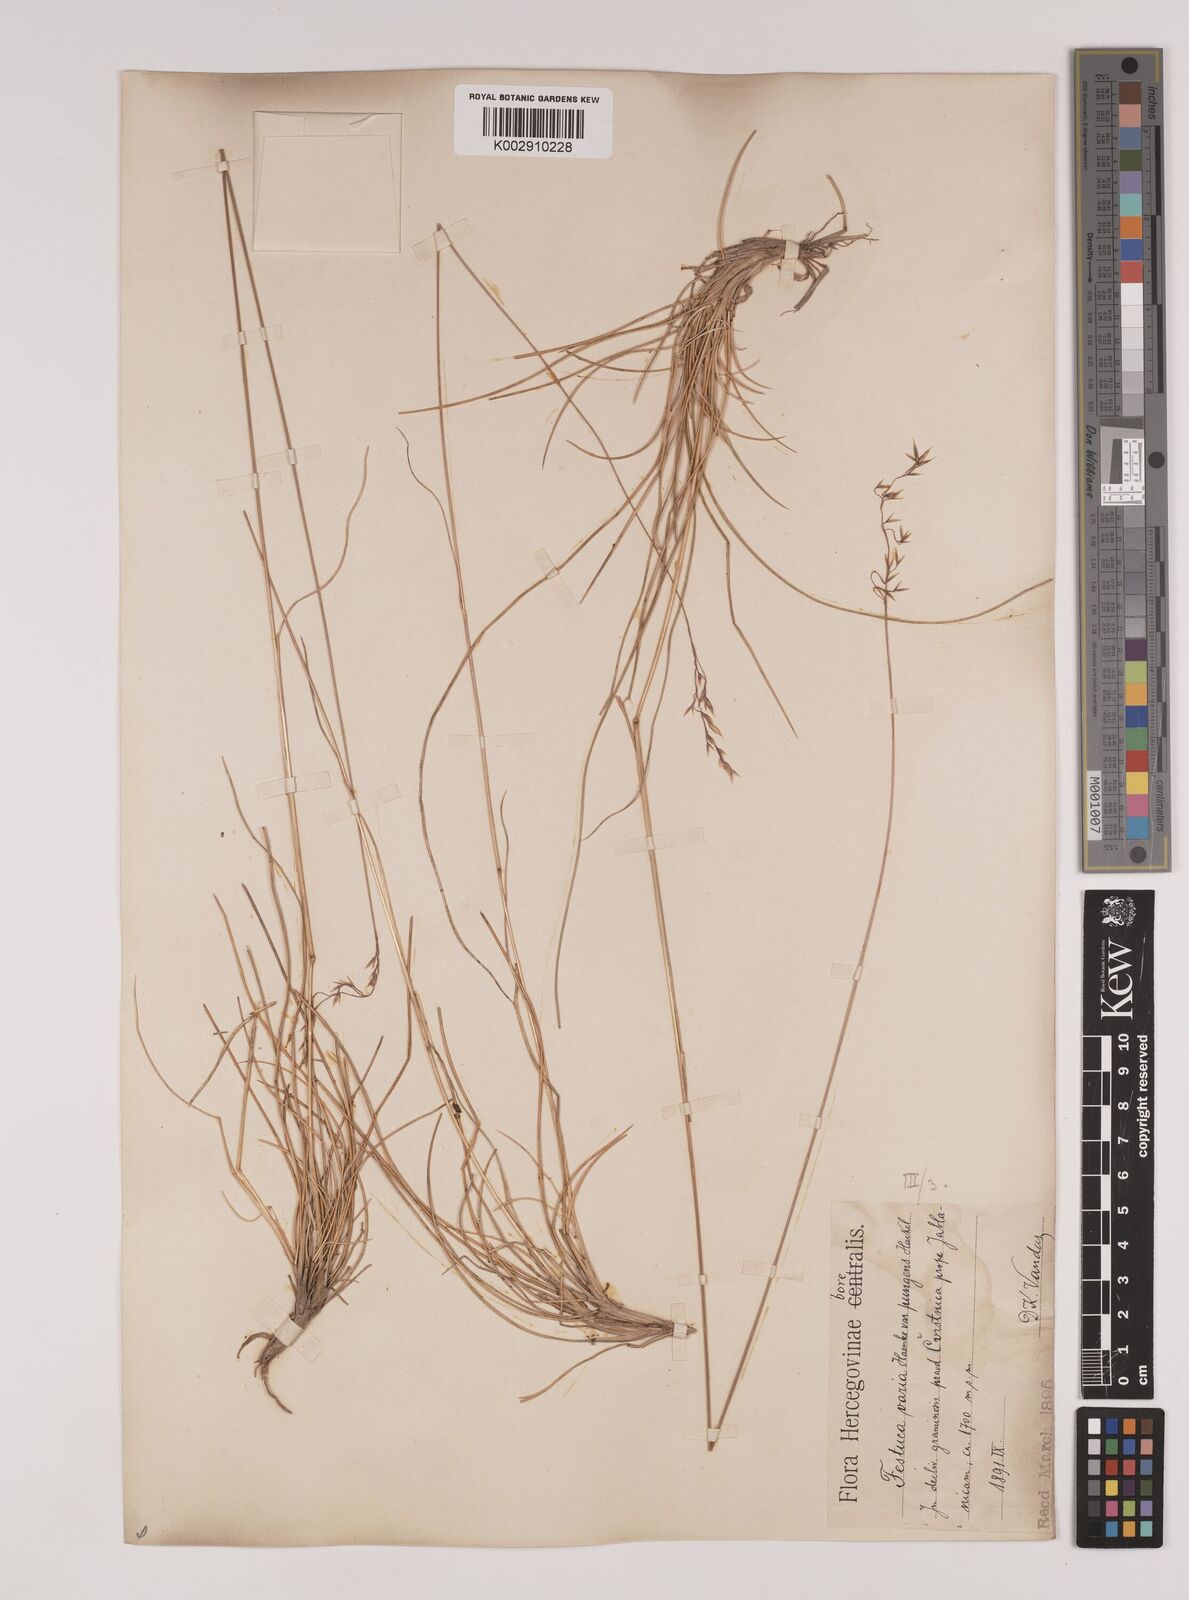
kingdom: Plantae
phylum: Tracheophyta
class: Liliopsida
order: Poales
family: Poaceae
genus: Festuca
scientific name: Festuca bosniaca
